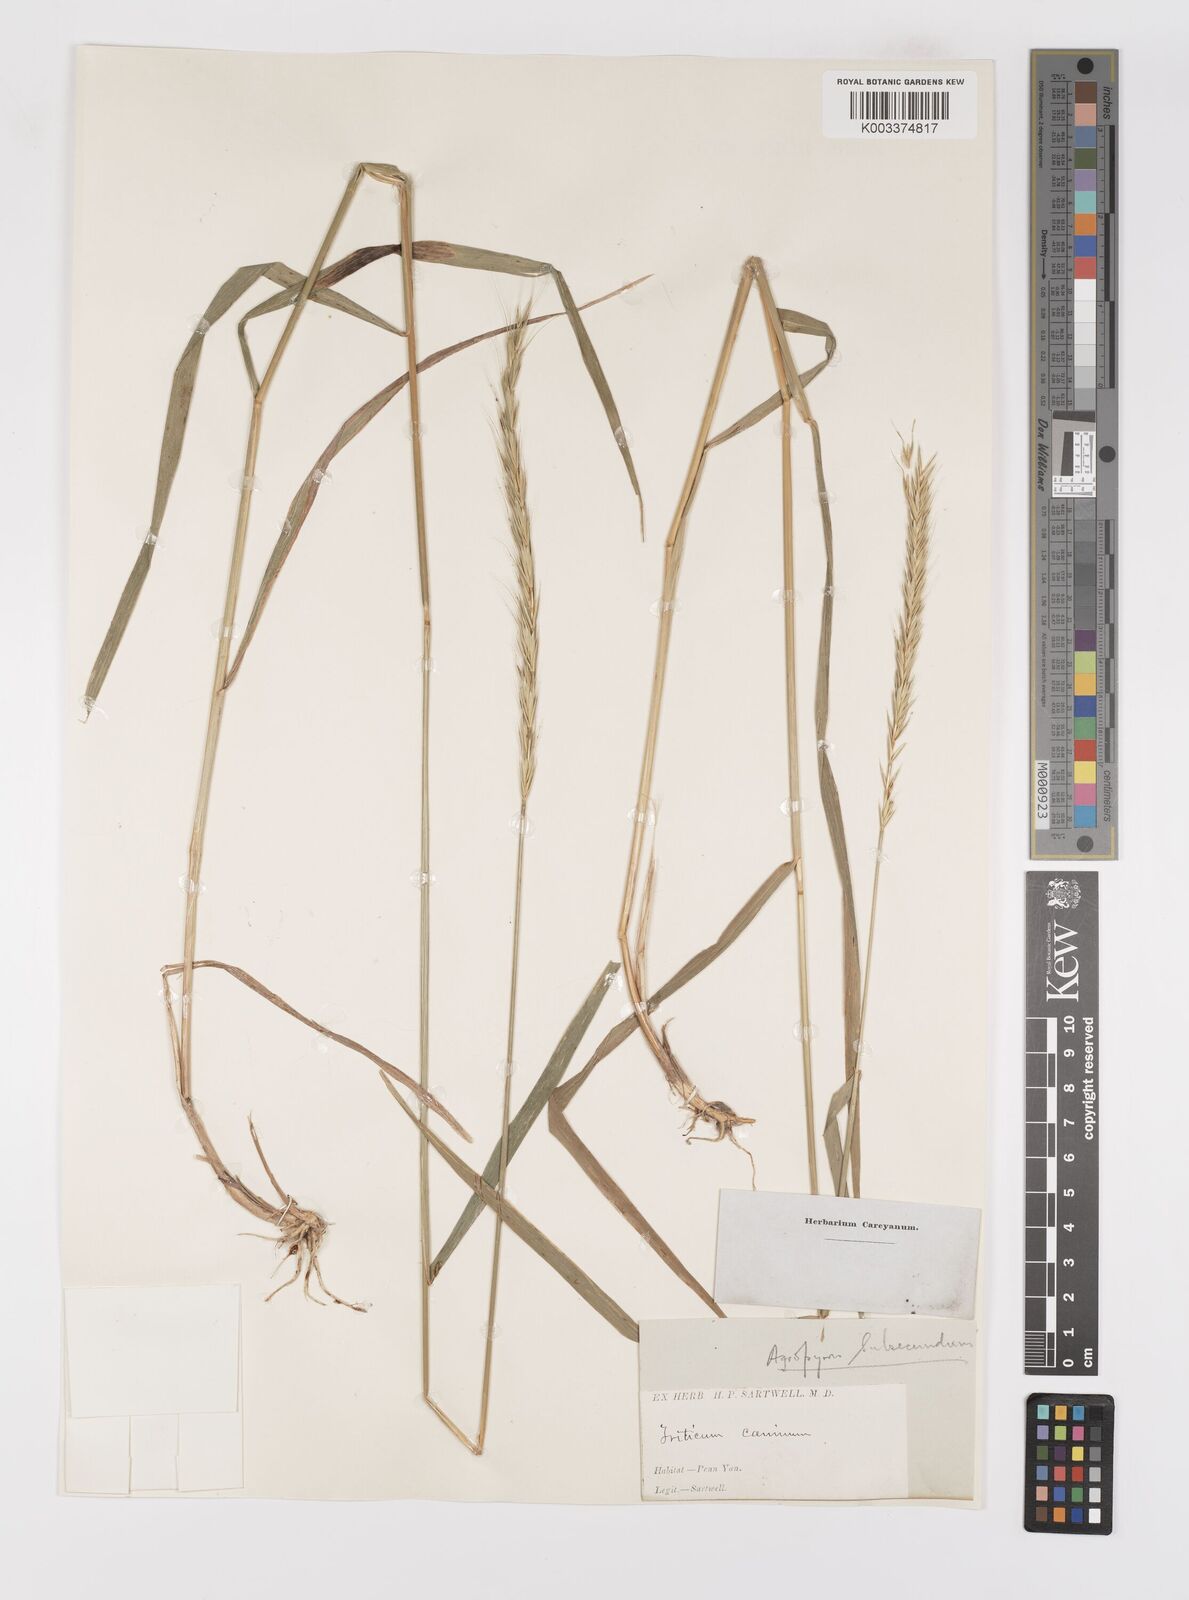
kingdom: Plantae
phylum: Tracheophyta
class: Liliopsida
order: Poales
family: Poaceae
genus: Elymus
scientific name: Elymus violaceus
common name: Arctic wheatgrass
